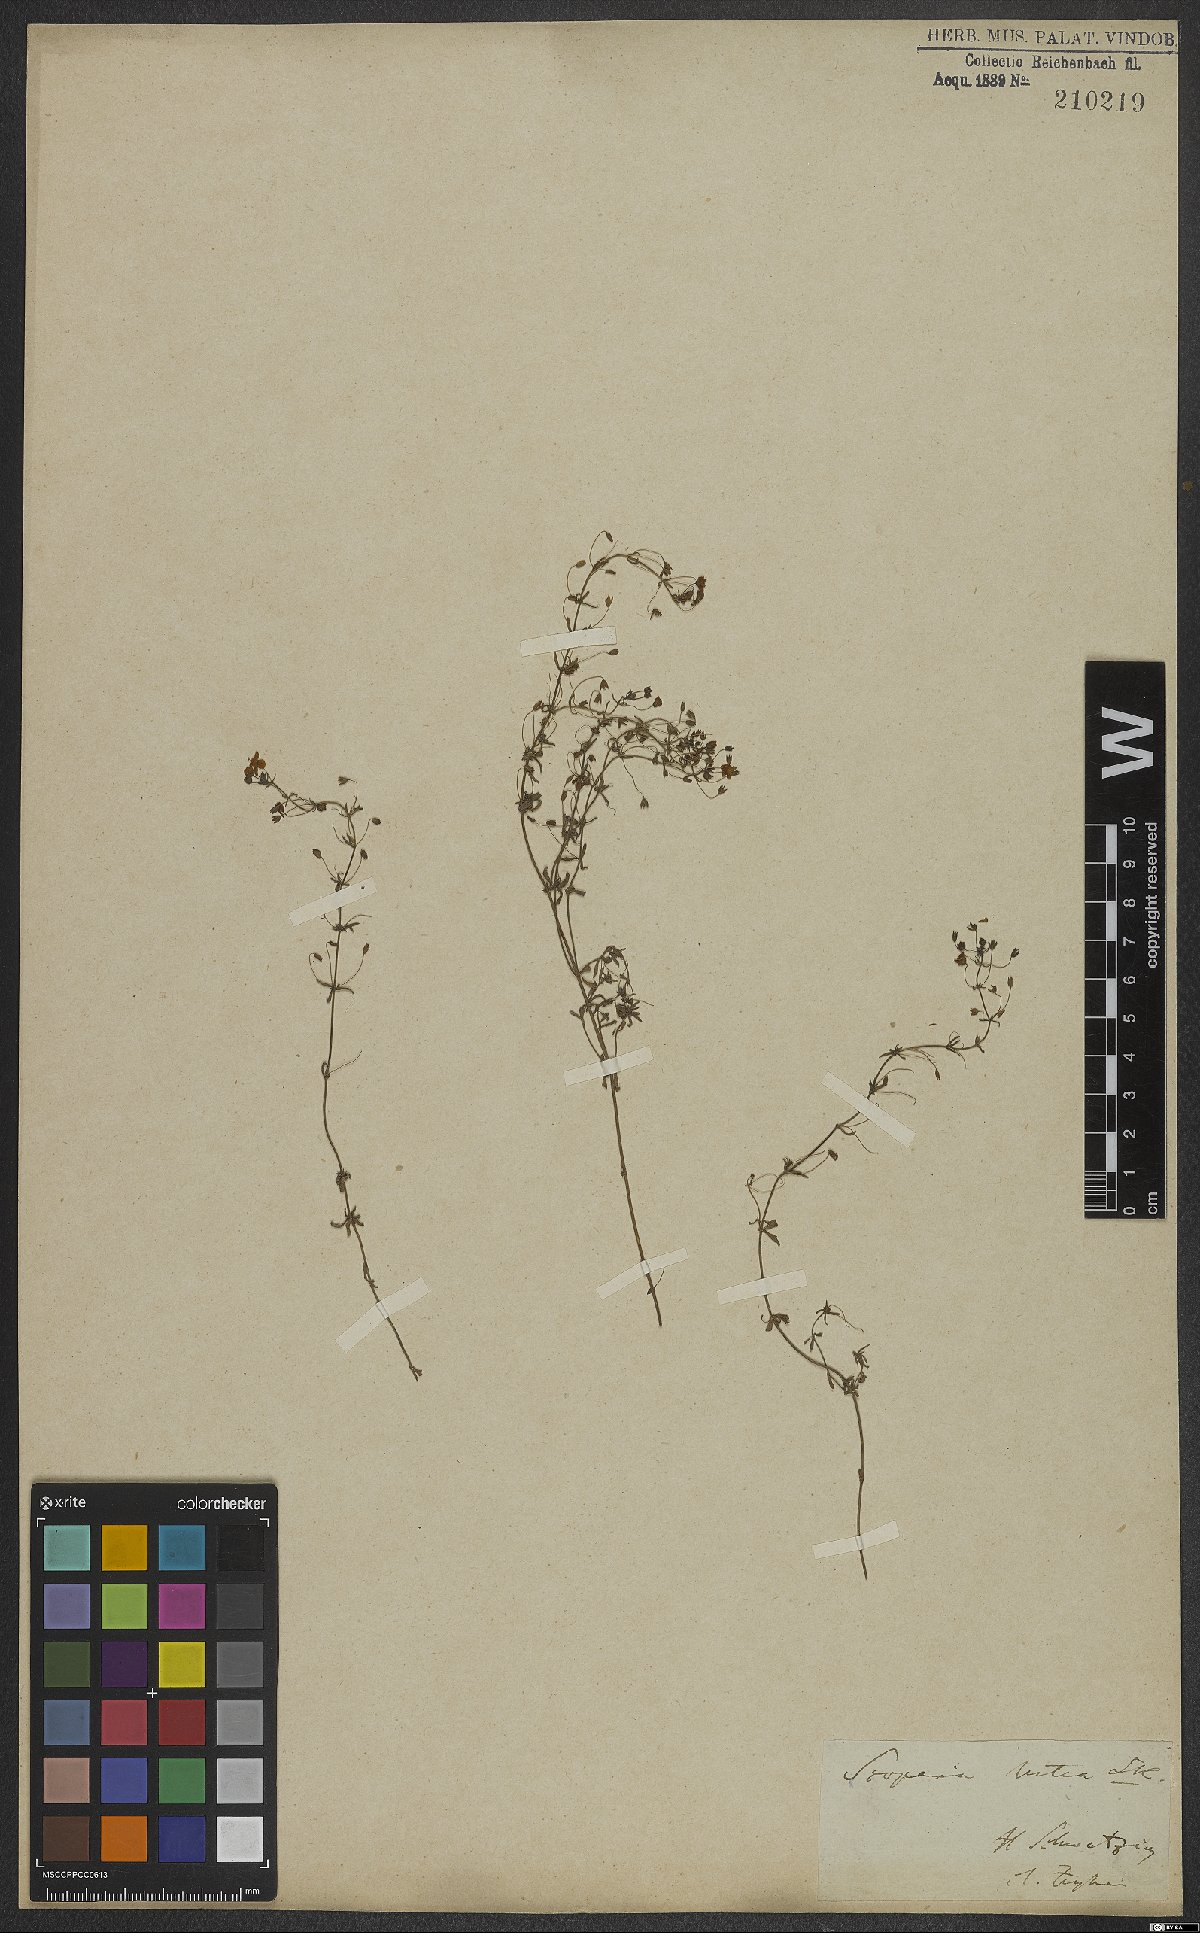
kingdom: Plantae
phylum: Tracheophyta
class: Magnoliopsida
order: Lamiales
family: Scrophulariaceae
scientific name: Scrophulariaceae
